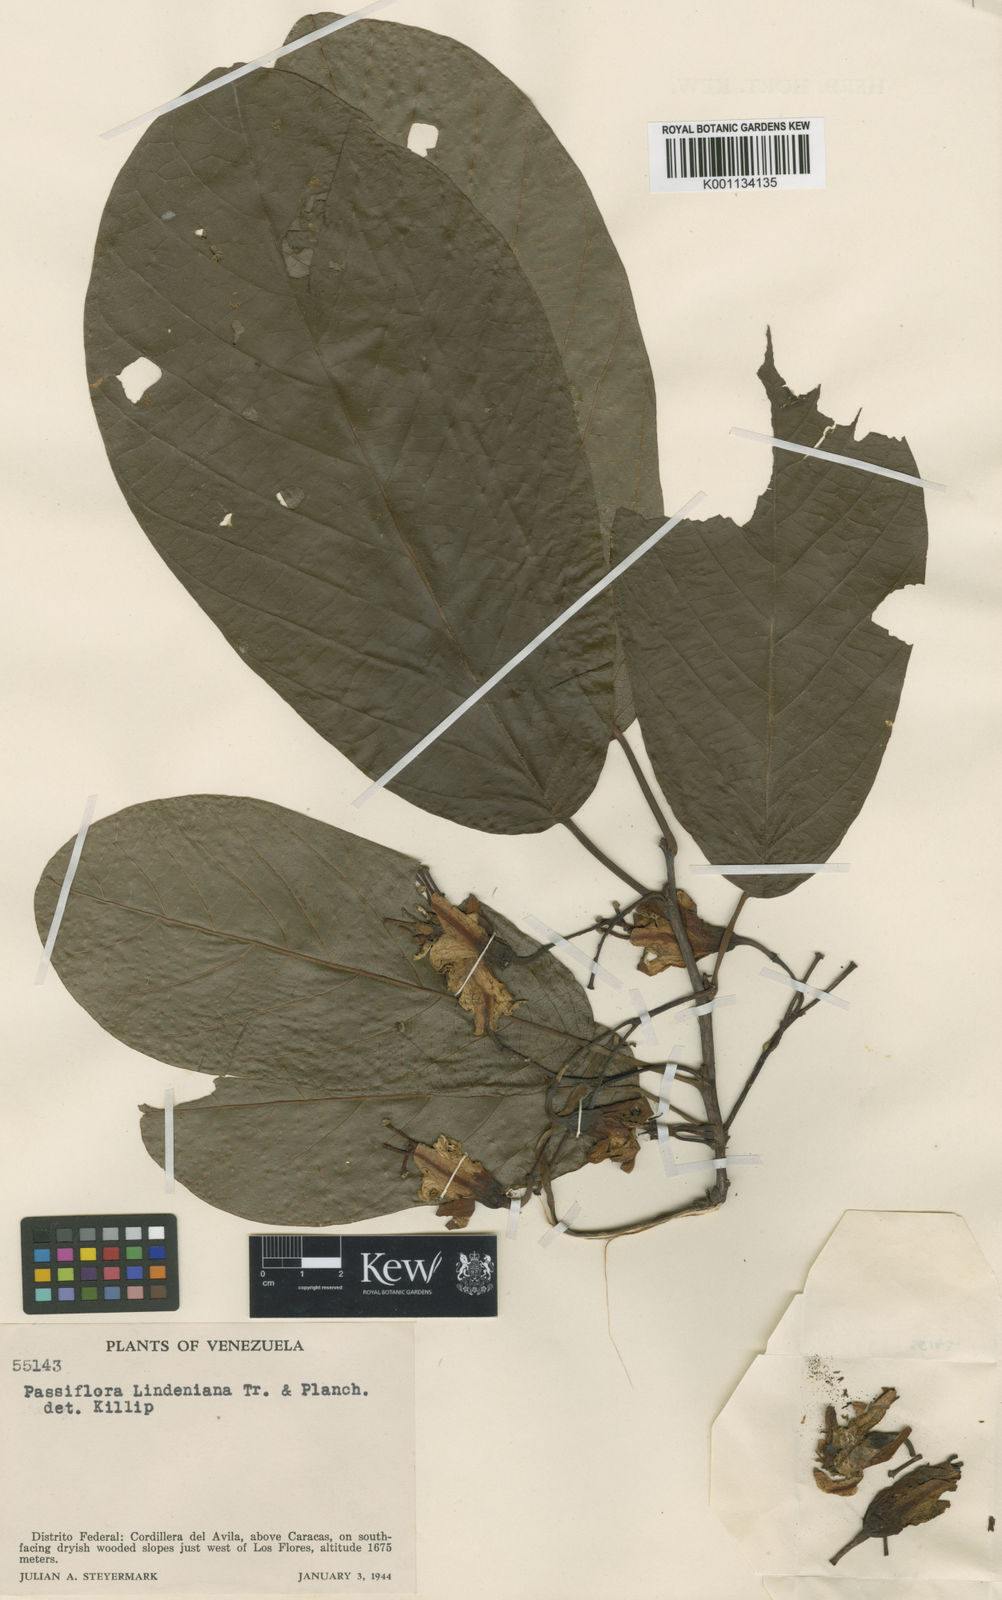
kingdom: Plantae
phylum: Tracheophyta
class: Magnoliopsida
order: Malpighiales
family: Passifloraceae
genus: Passiflora
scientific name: Passiflora lindeniana
